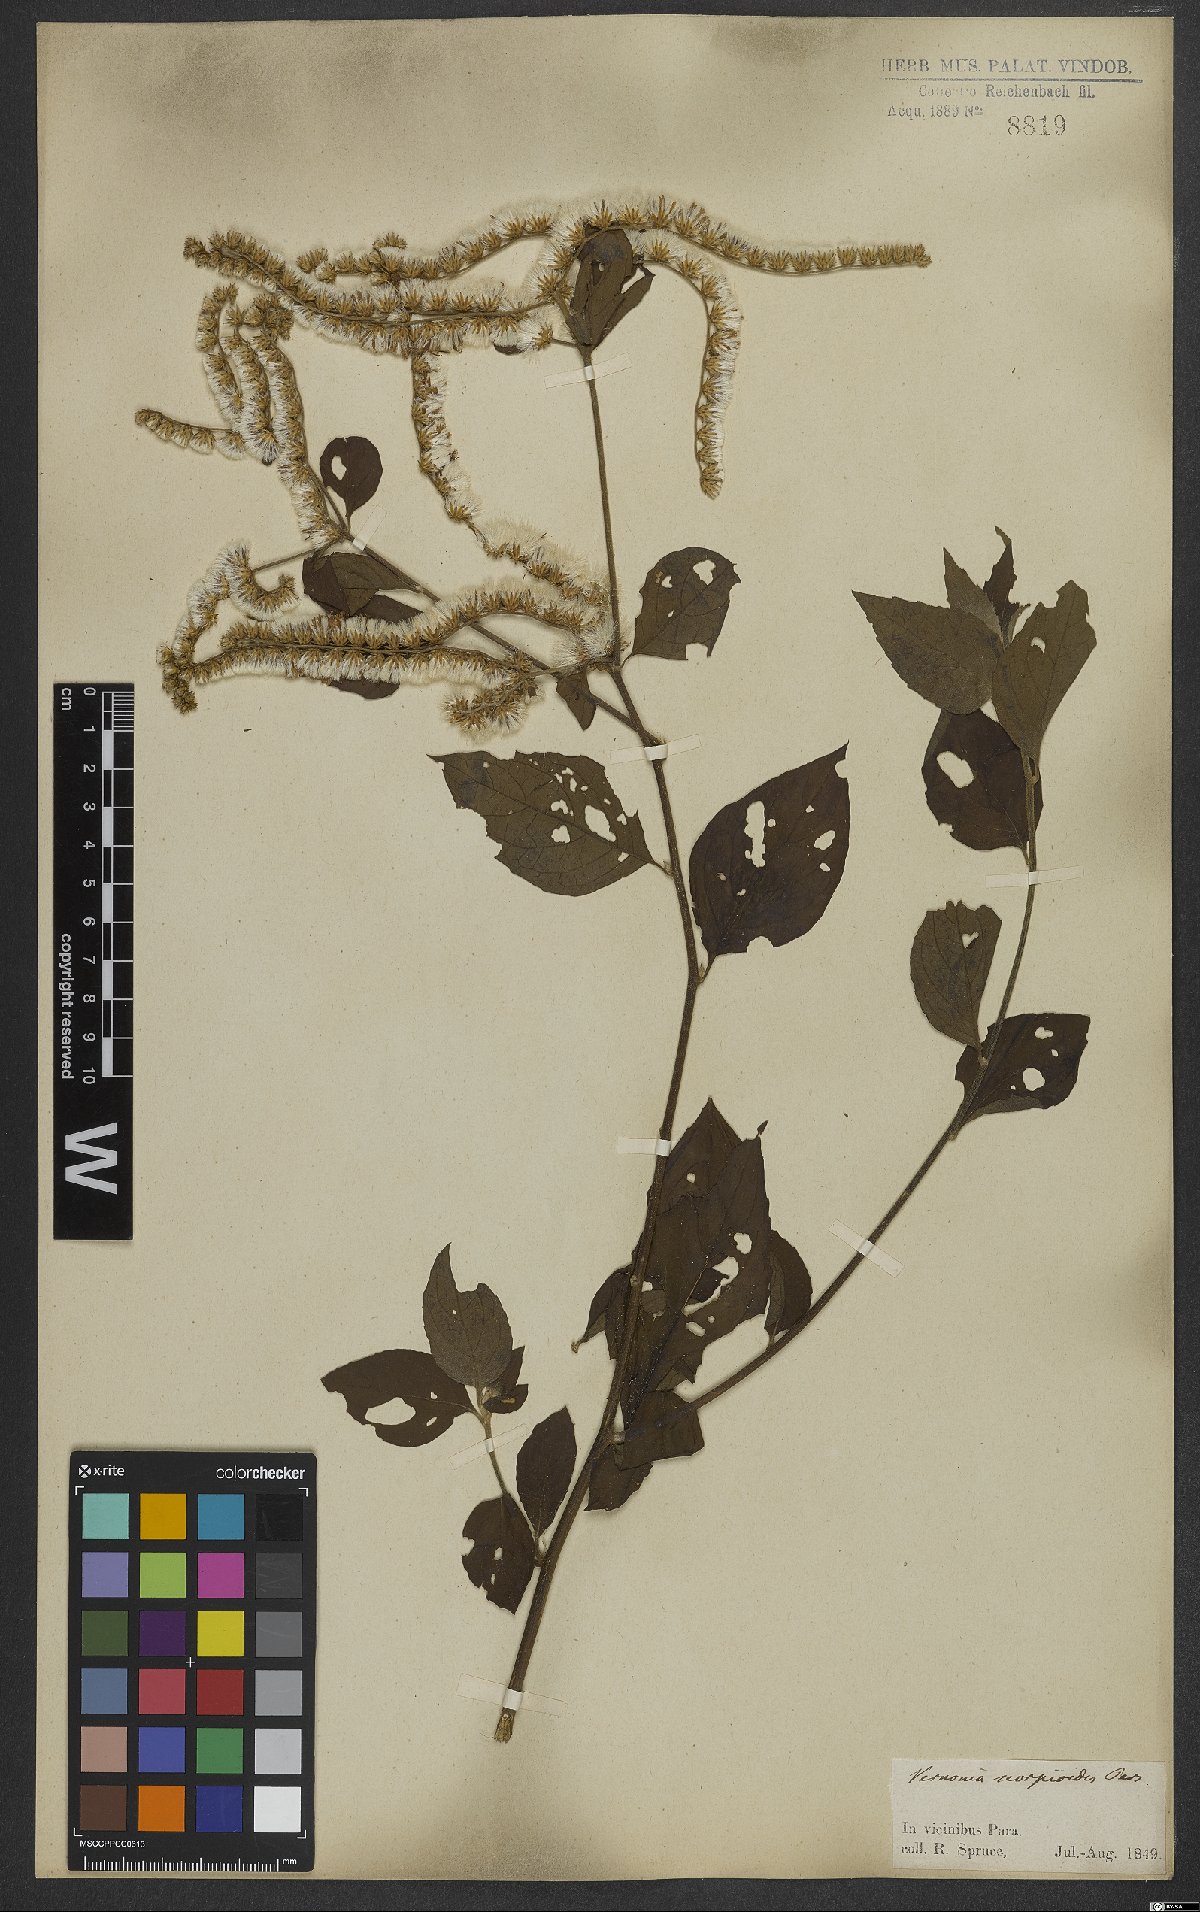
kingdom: Plantae
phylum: Tracheophyta
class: Magnoliopsida
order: Asterales
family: Asteraceae
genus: Cyrtocymura
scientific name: Cyrtocymura scorpioides
